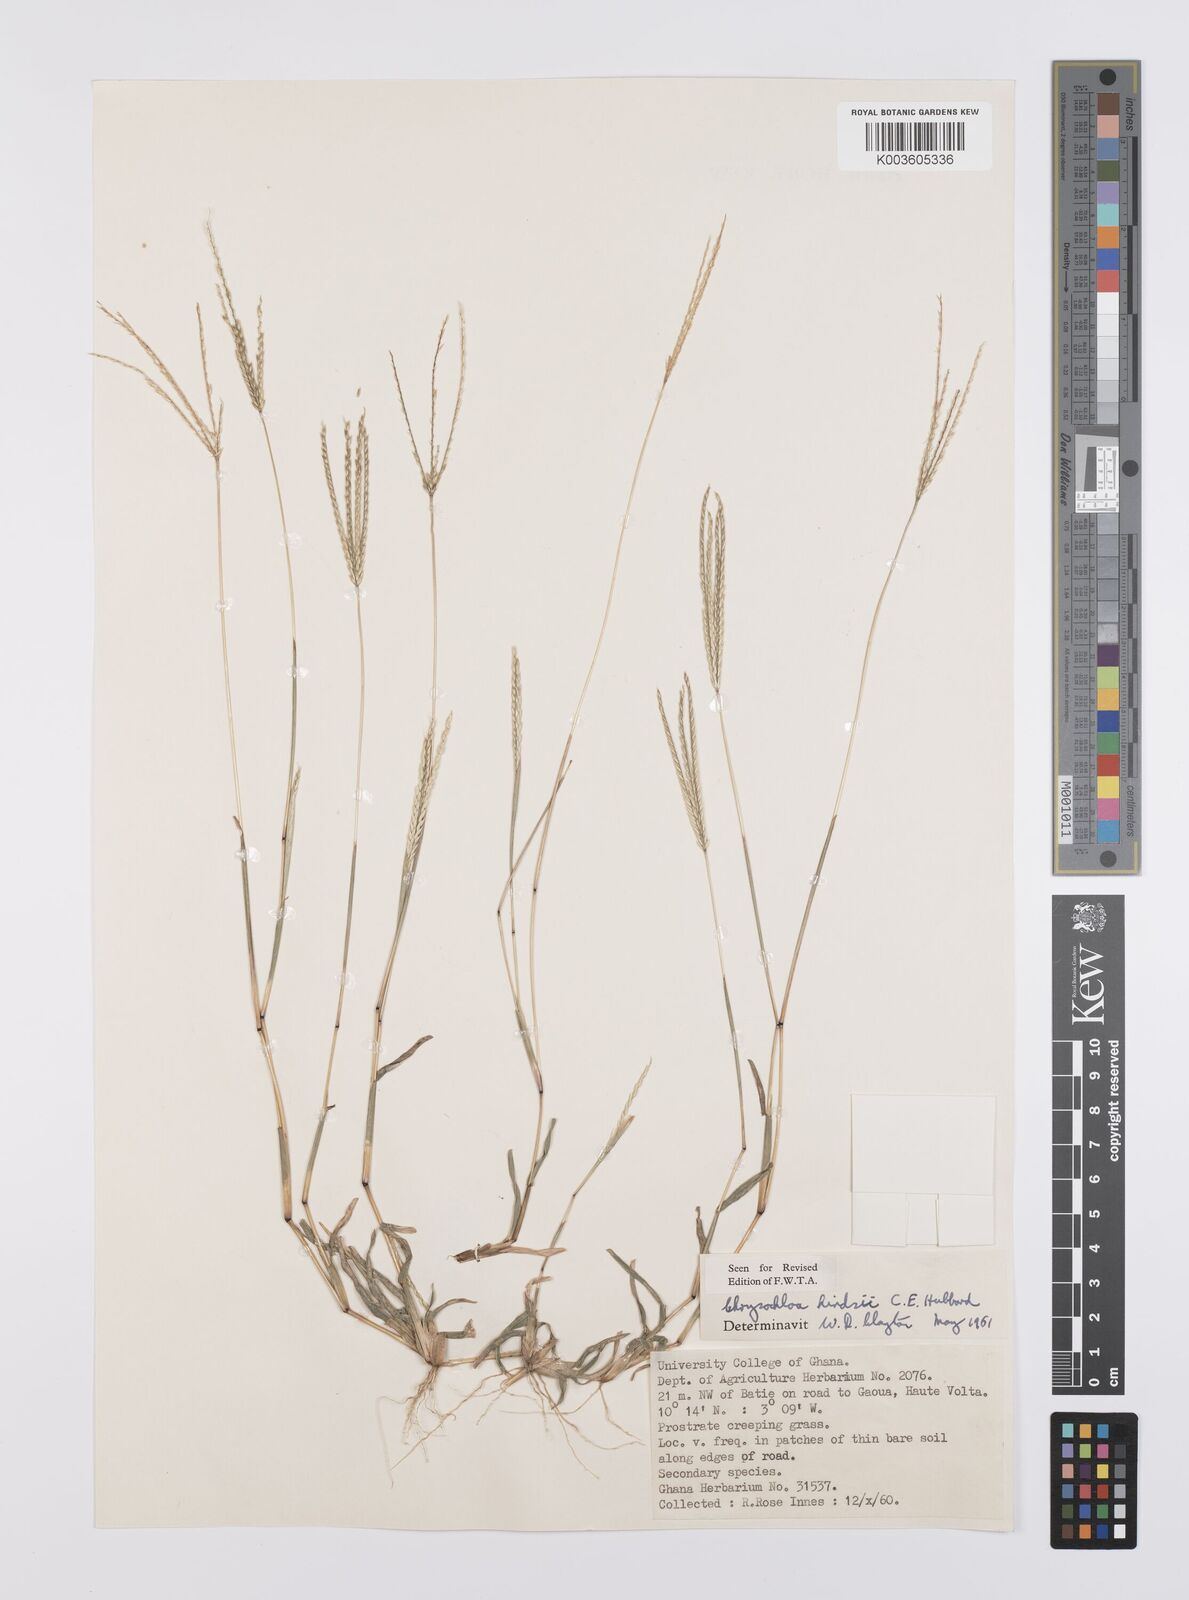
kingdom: Plantae
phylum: Tracheophyta
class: Liliopsida
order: Poales
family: Poaceae
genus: Chrysochloa
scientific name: Chrysochloa hindsii
